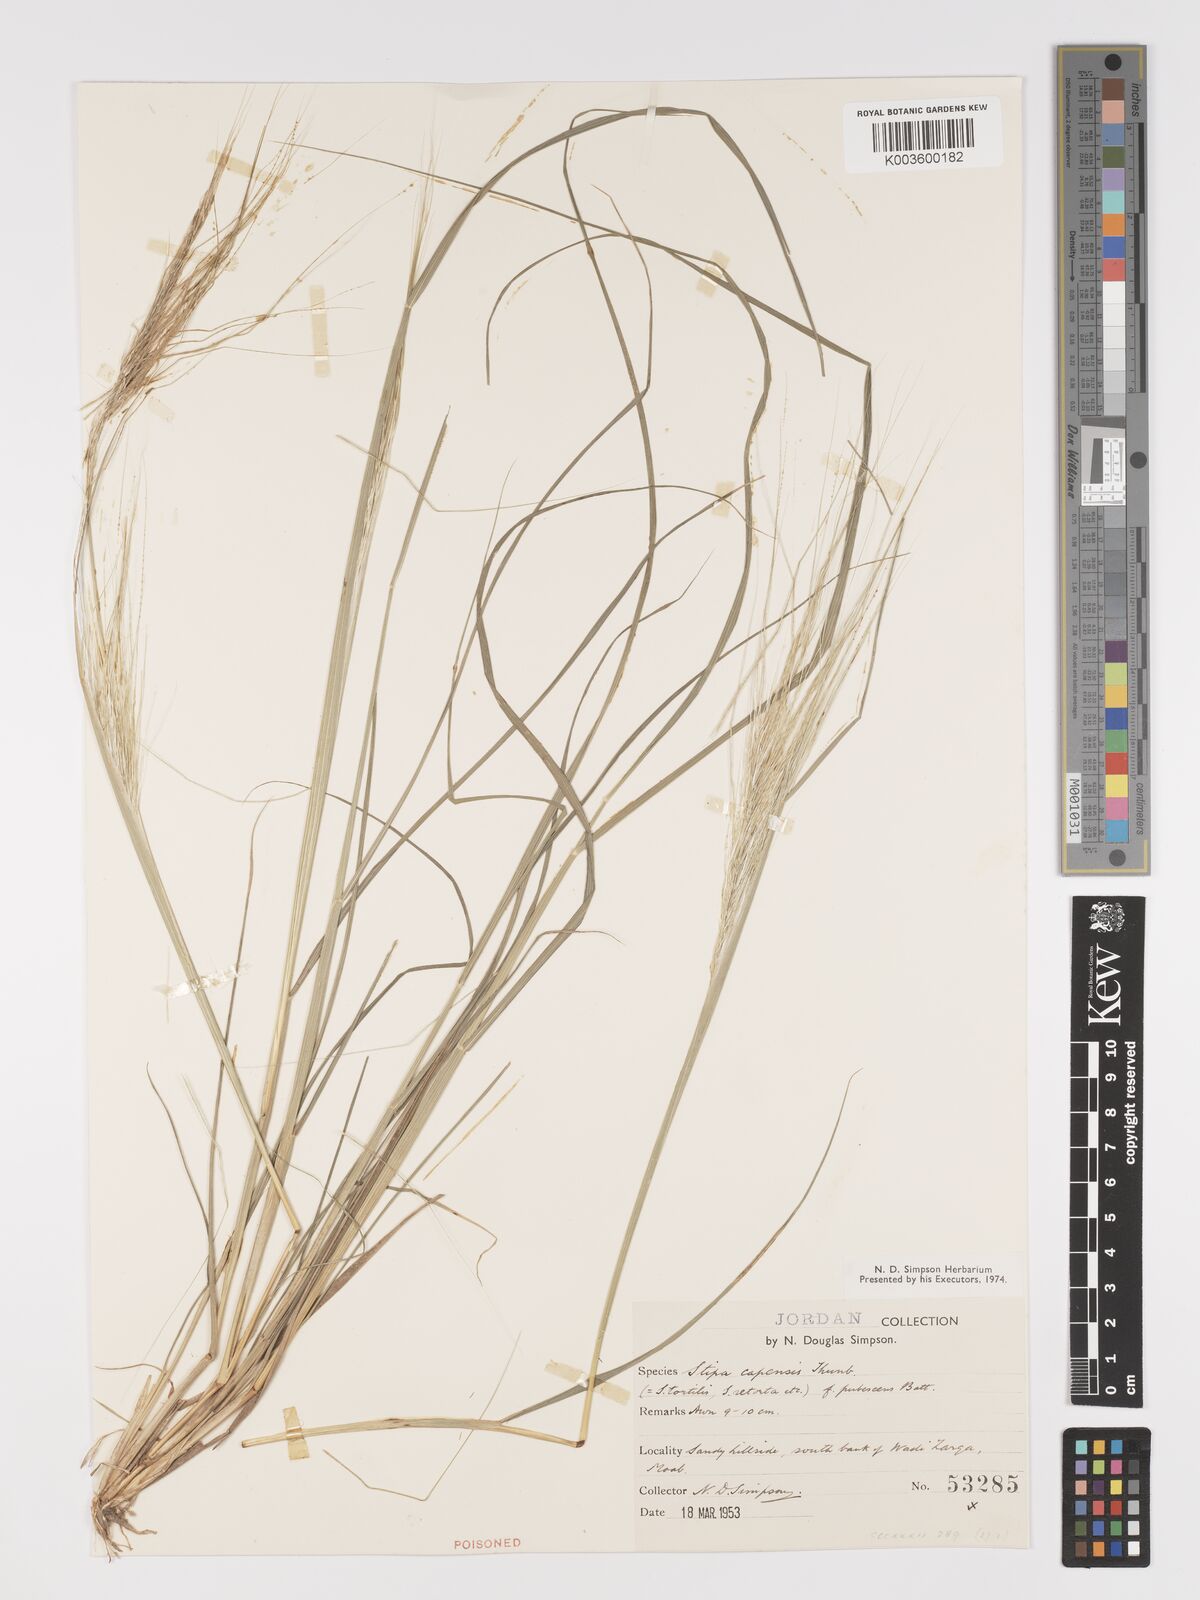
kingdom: Plantae
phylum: Tracheophyta
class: Liliopsida
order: Poales
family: Poaceae
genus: Stipellula
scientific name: Stipellula capensis
